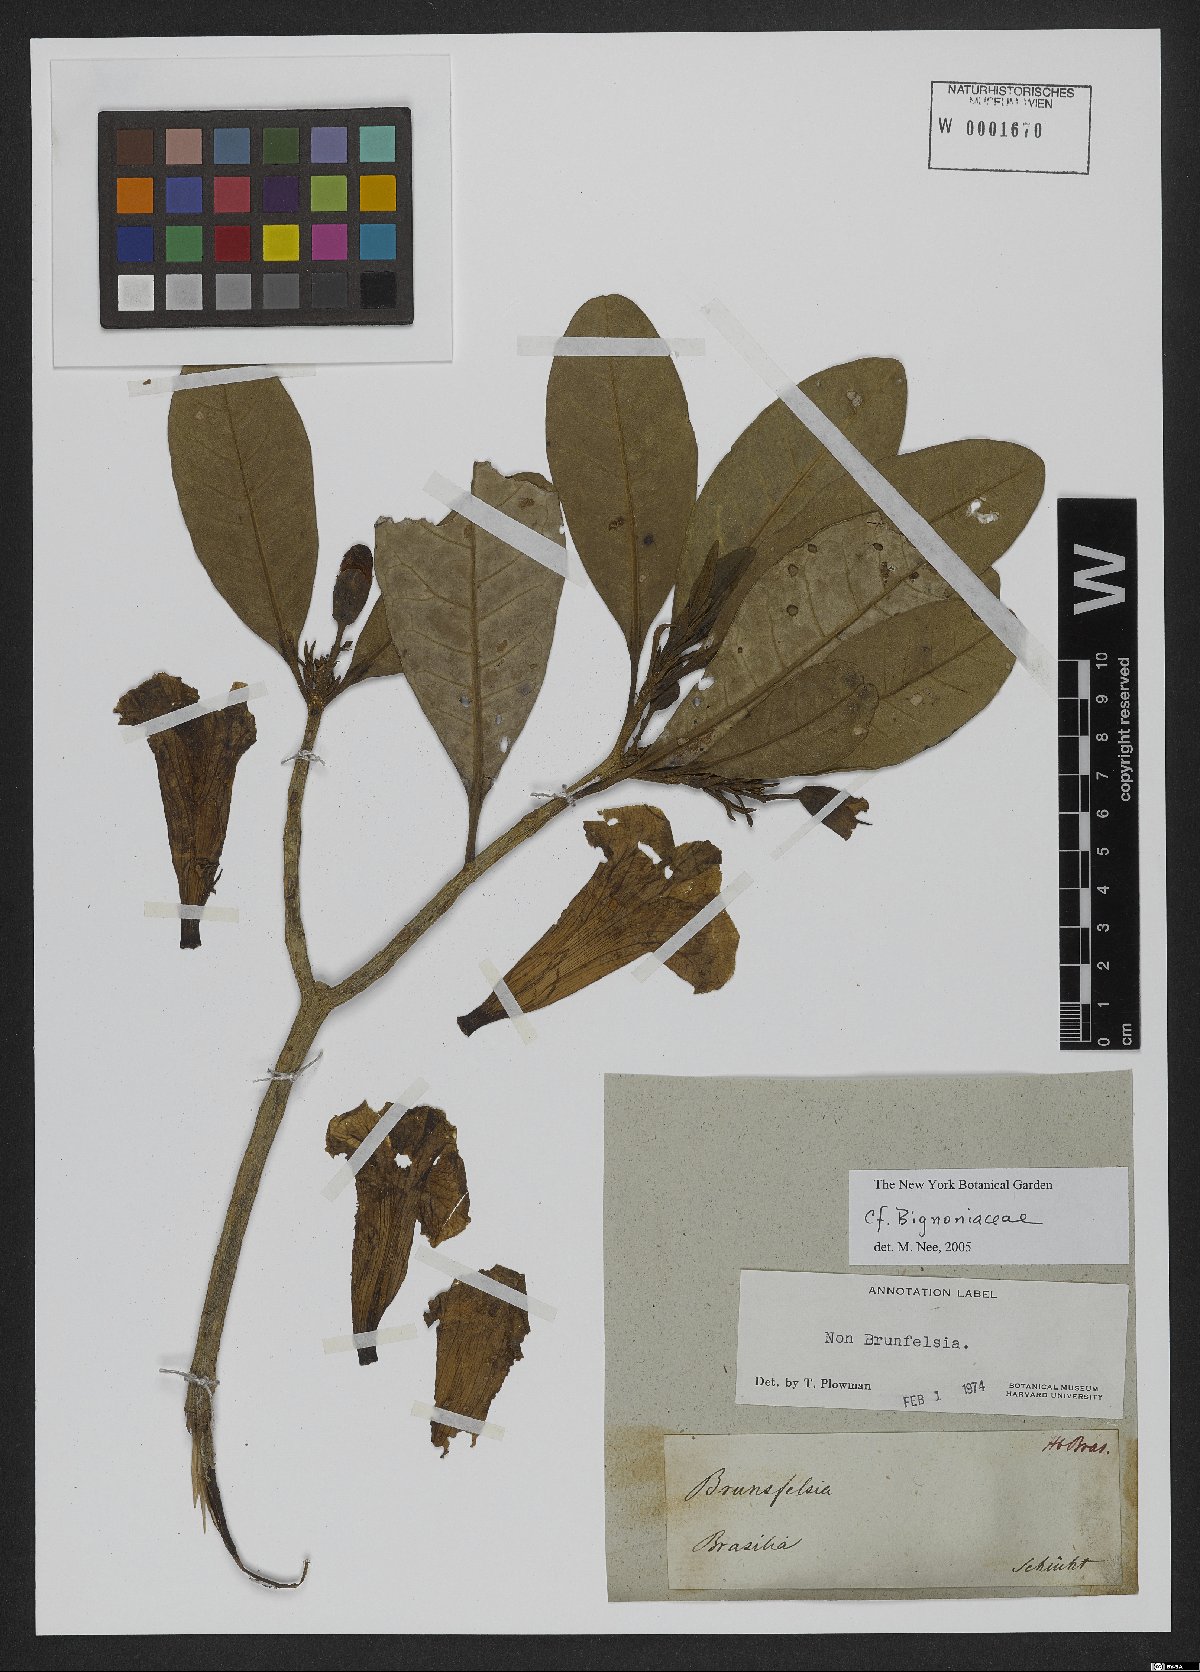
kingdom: Plantae
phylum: Tracheophyta
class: Magnoliopsida
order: Lamiales
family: Bignoniaceae
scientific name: Bignoniaceae
